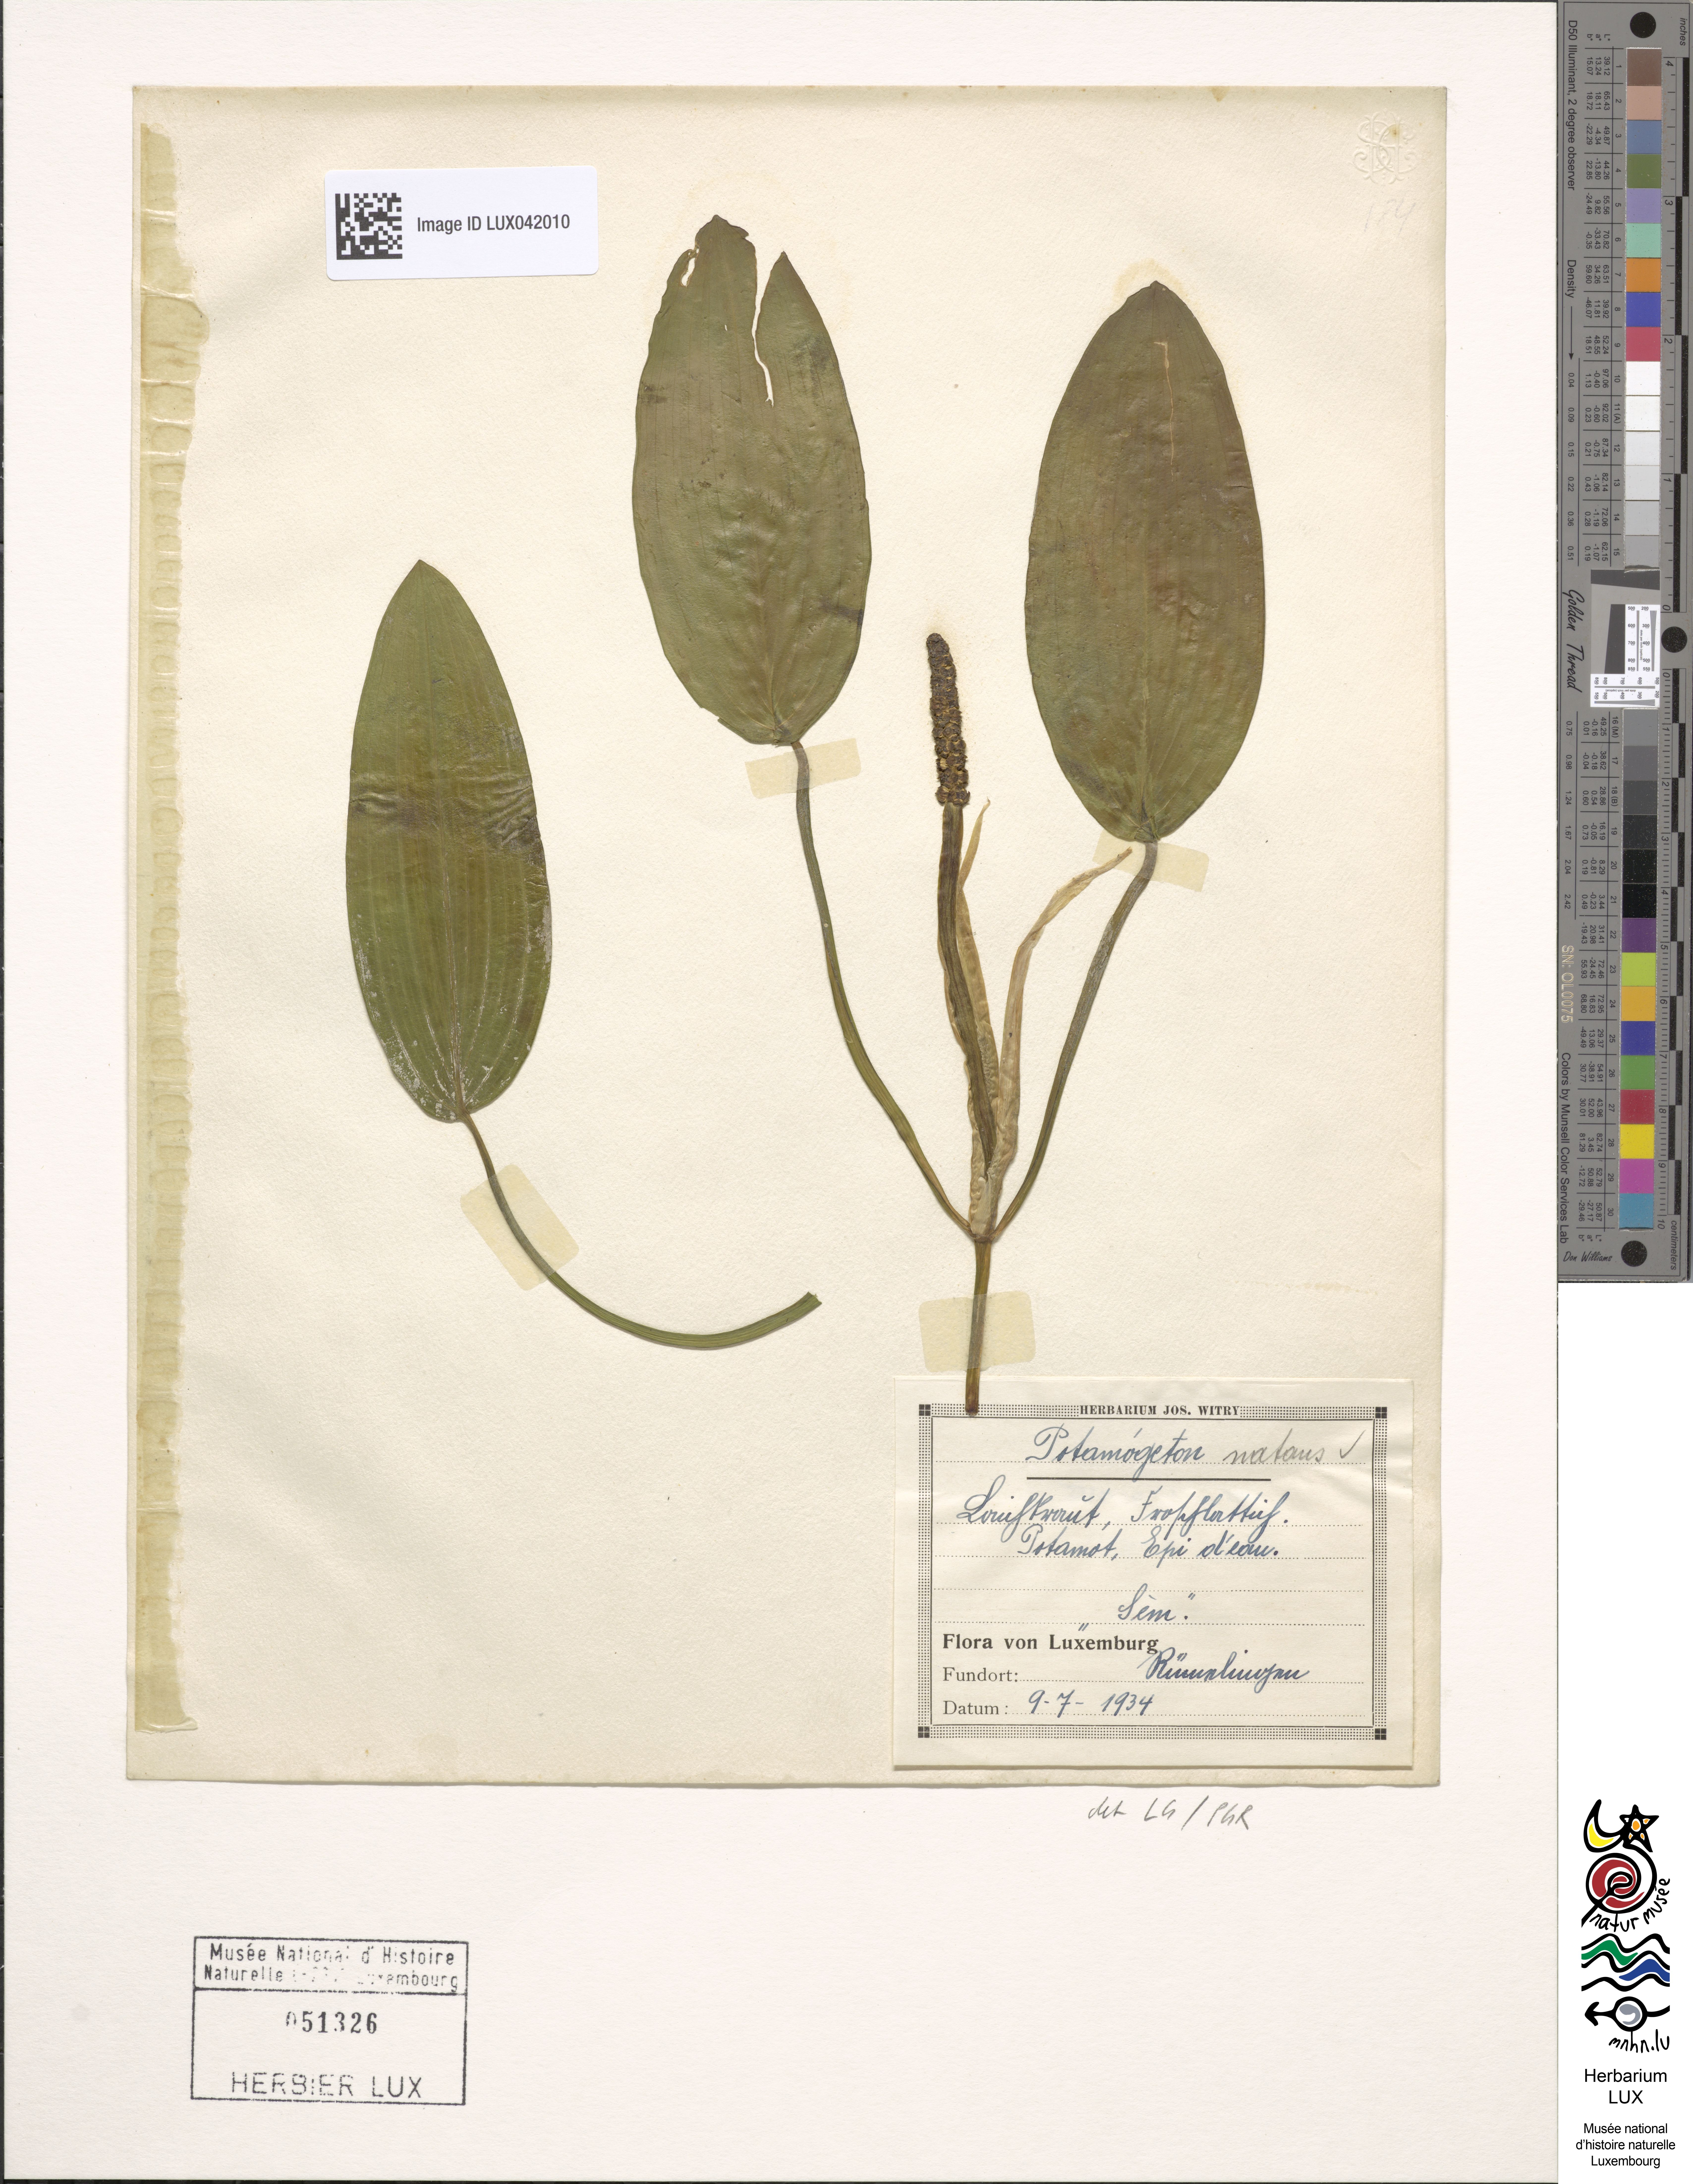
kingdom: Plantae
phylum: Tracheophyta
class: Liliopsida
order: Alismatales
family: Potamogetonaceae
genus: Potamogeton
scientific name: Potamogeton natans
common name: Broad-leaved pondweed
